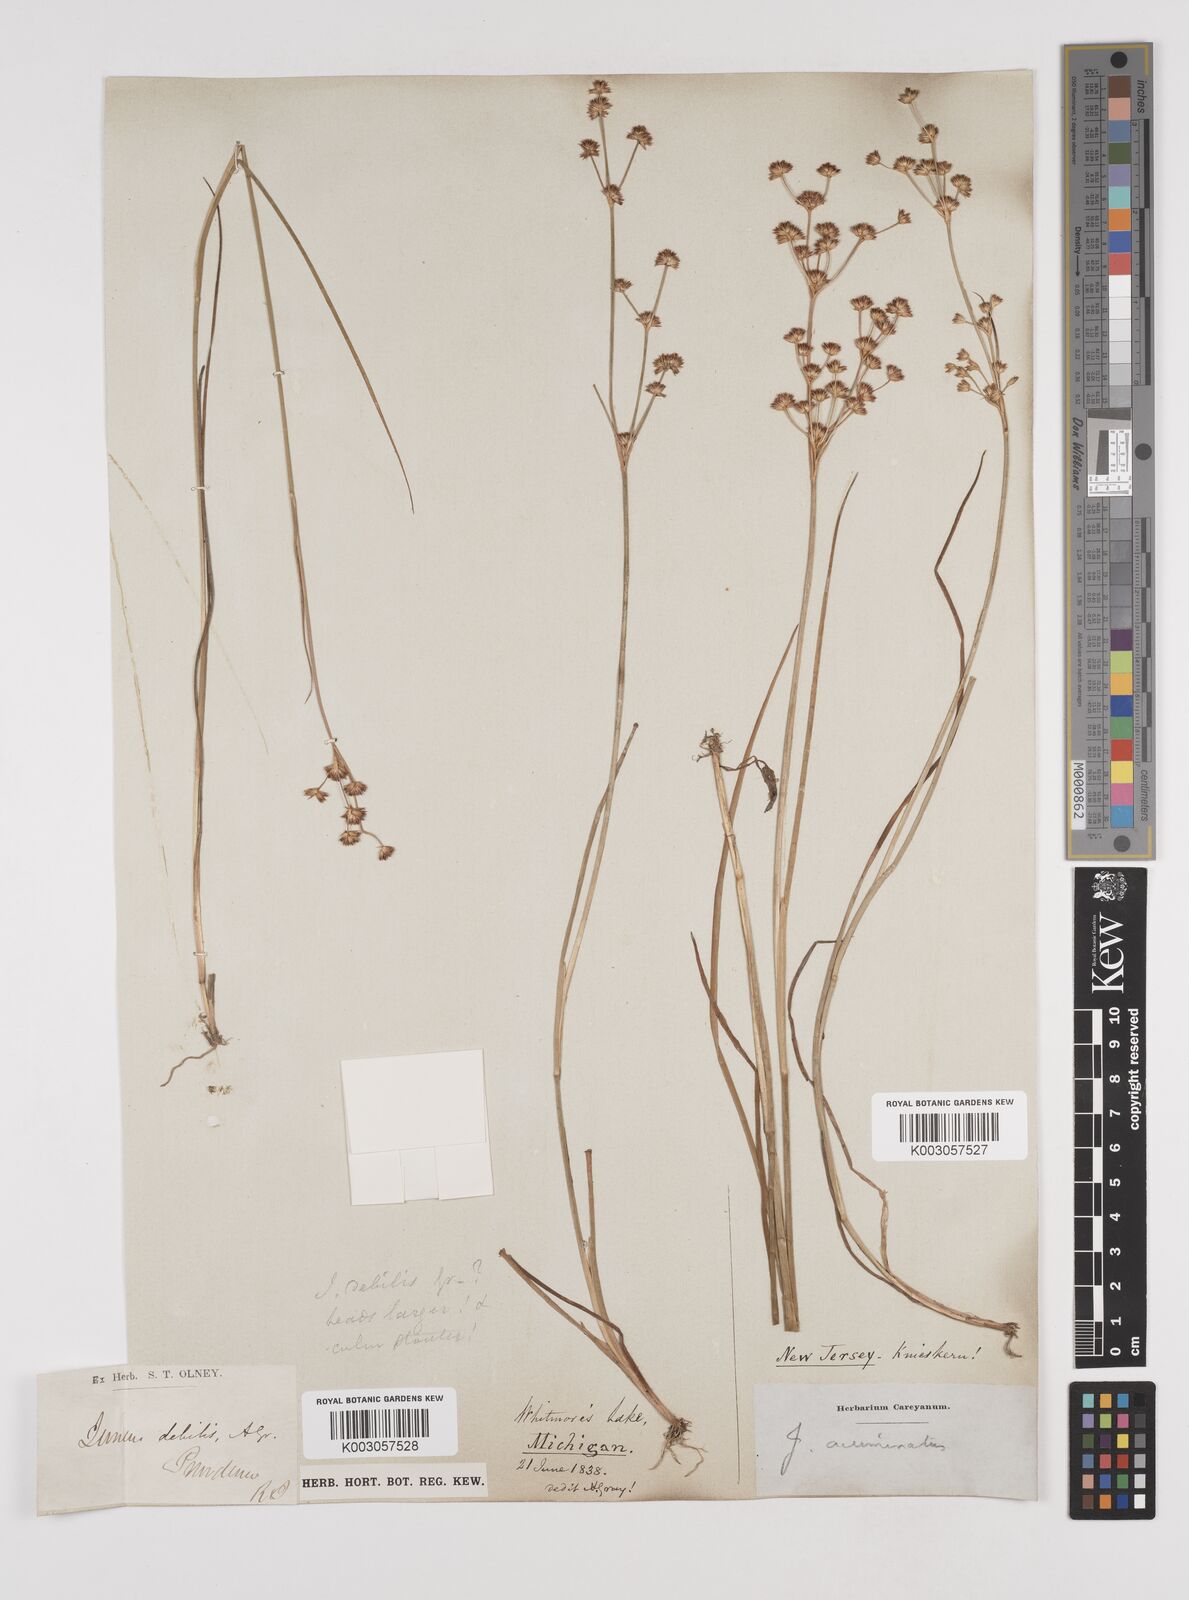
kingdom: Plantae
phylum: Tracheophyta
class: Liliopsida
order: Poales
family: Juncaceae
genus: Juncus
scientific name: Juncus acuminatus
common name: Knotty-leaved rush
